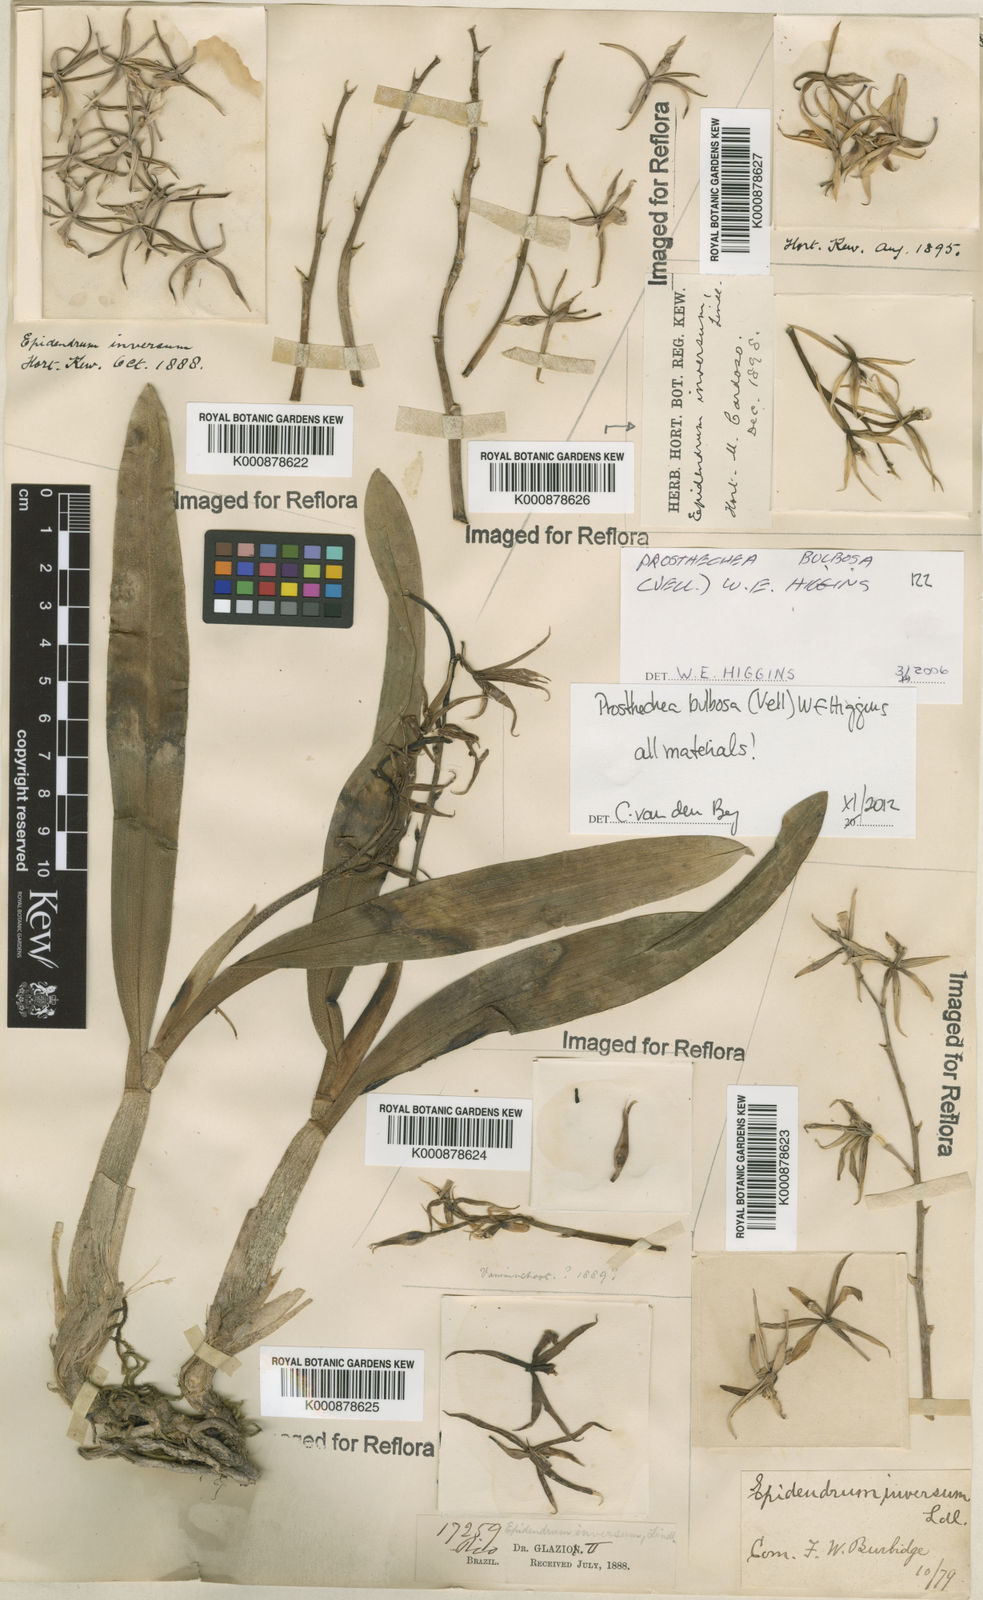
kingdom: Plantae
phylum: Tracheophyta
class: Liliopsida
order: Asparagales
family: Orchidaceae
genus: Prosthechea
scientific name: Prosthechea bulbosa
